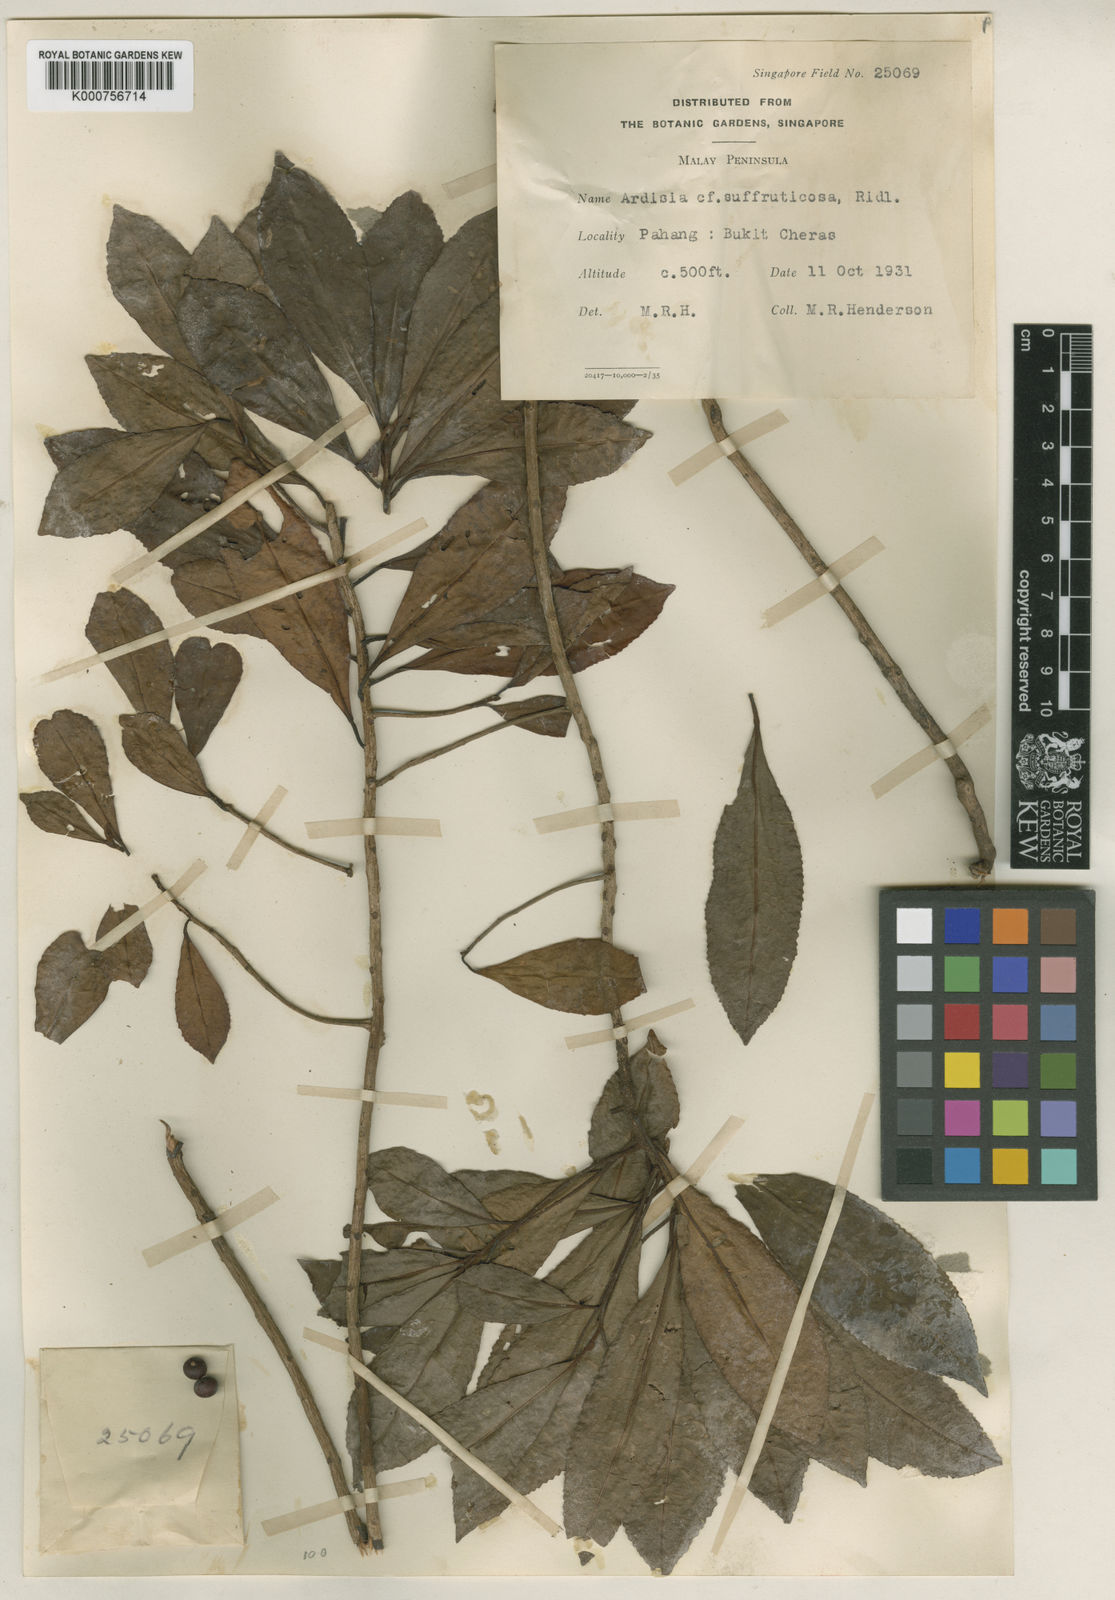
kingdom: Plantae
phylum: Tracheophyta
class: Magnoliopsida
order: Ericales
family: Primulaceae
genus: Ardisia
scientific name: Ardisia cymosa
